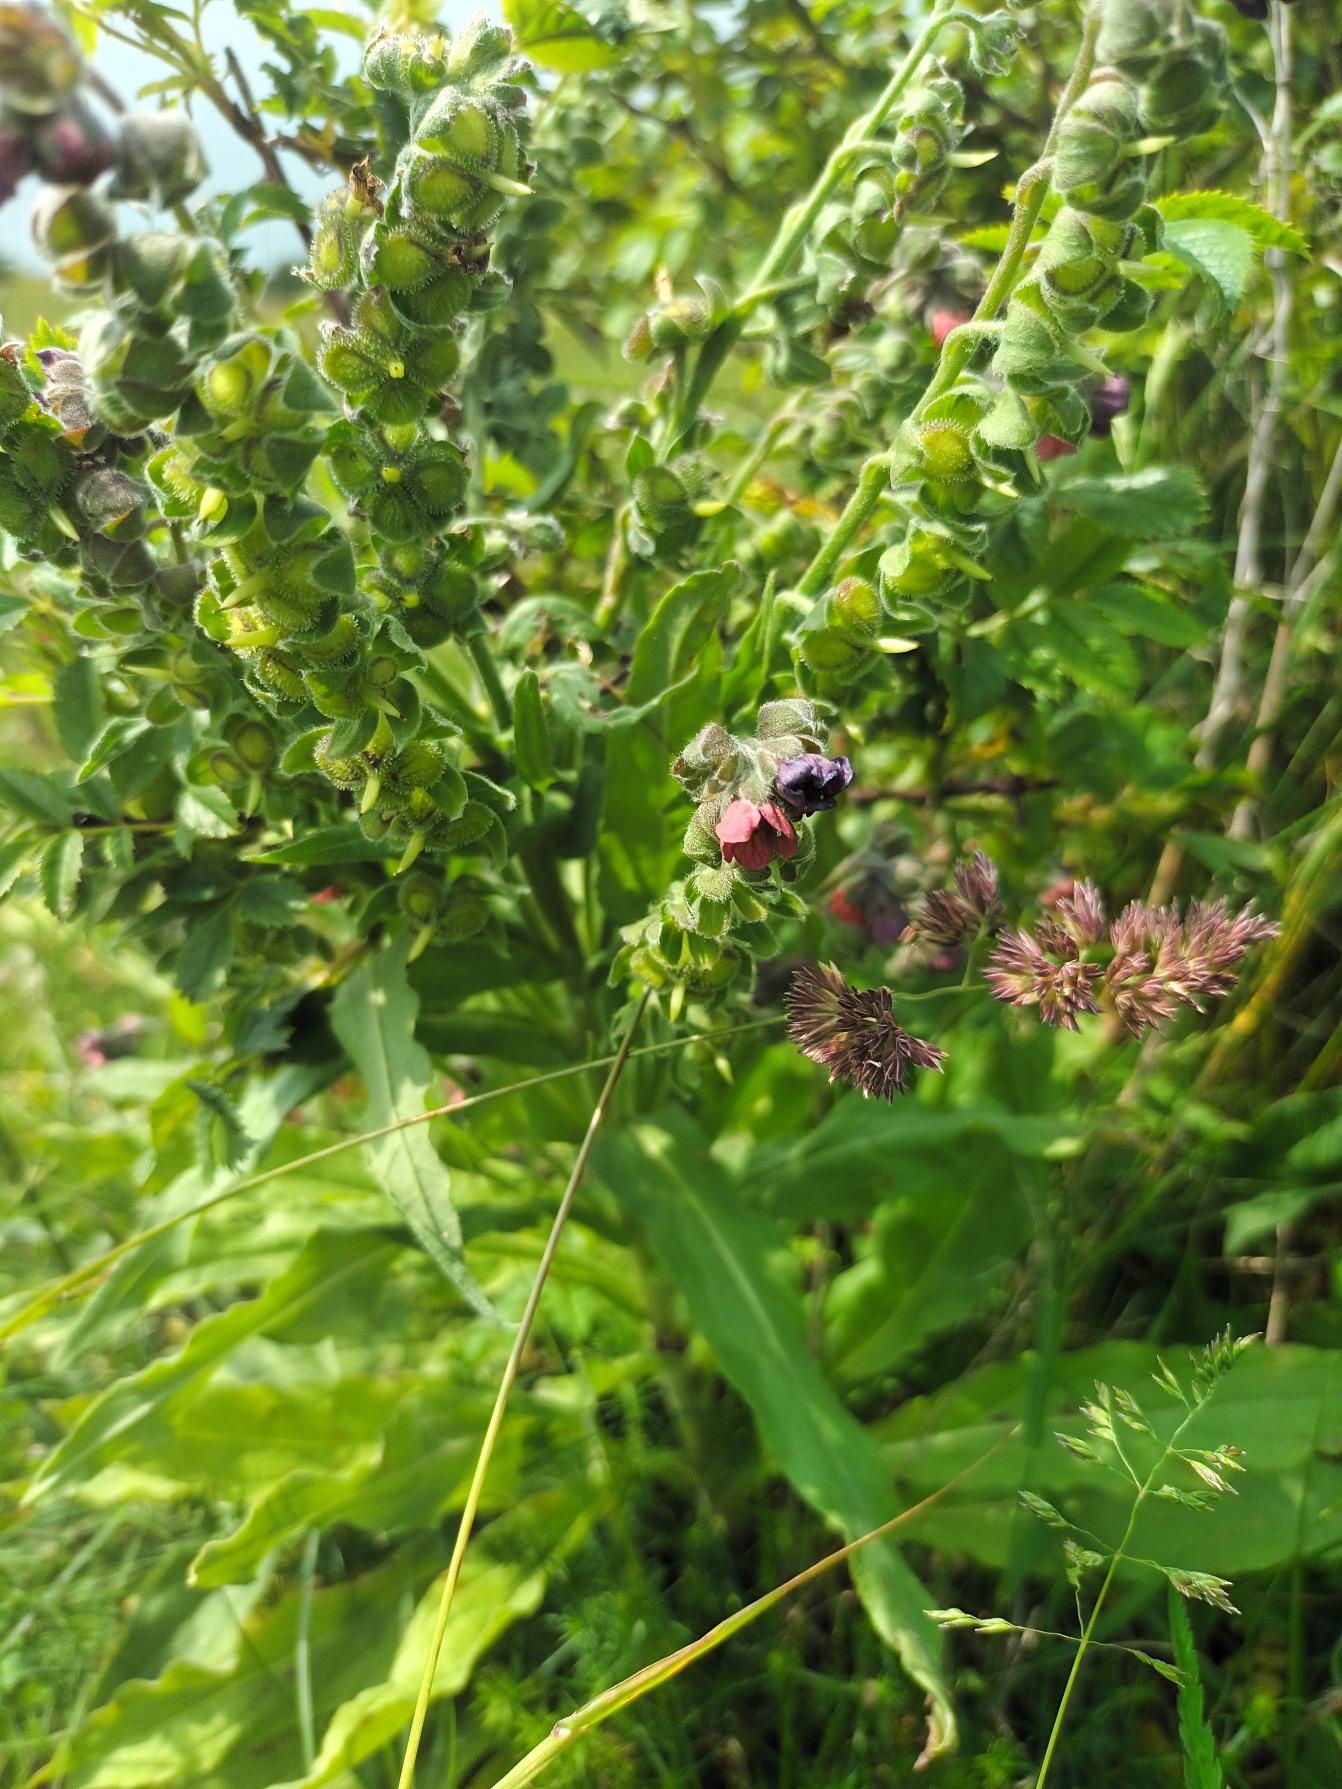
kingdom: Plantae
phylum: Tracheophyta
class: Magnoliopsida
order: Boraginales
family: Boraginaceae
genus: Cynoglossum
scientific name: Cynoglossum officinale
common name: Hundetunge
